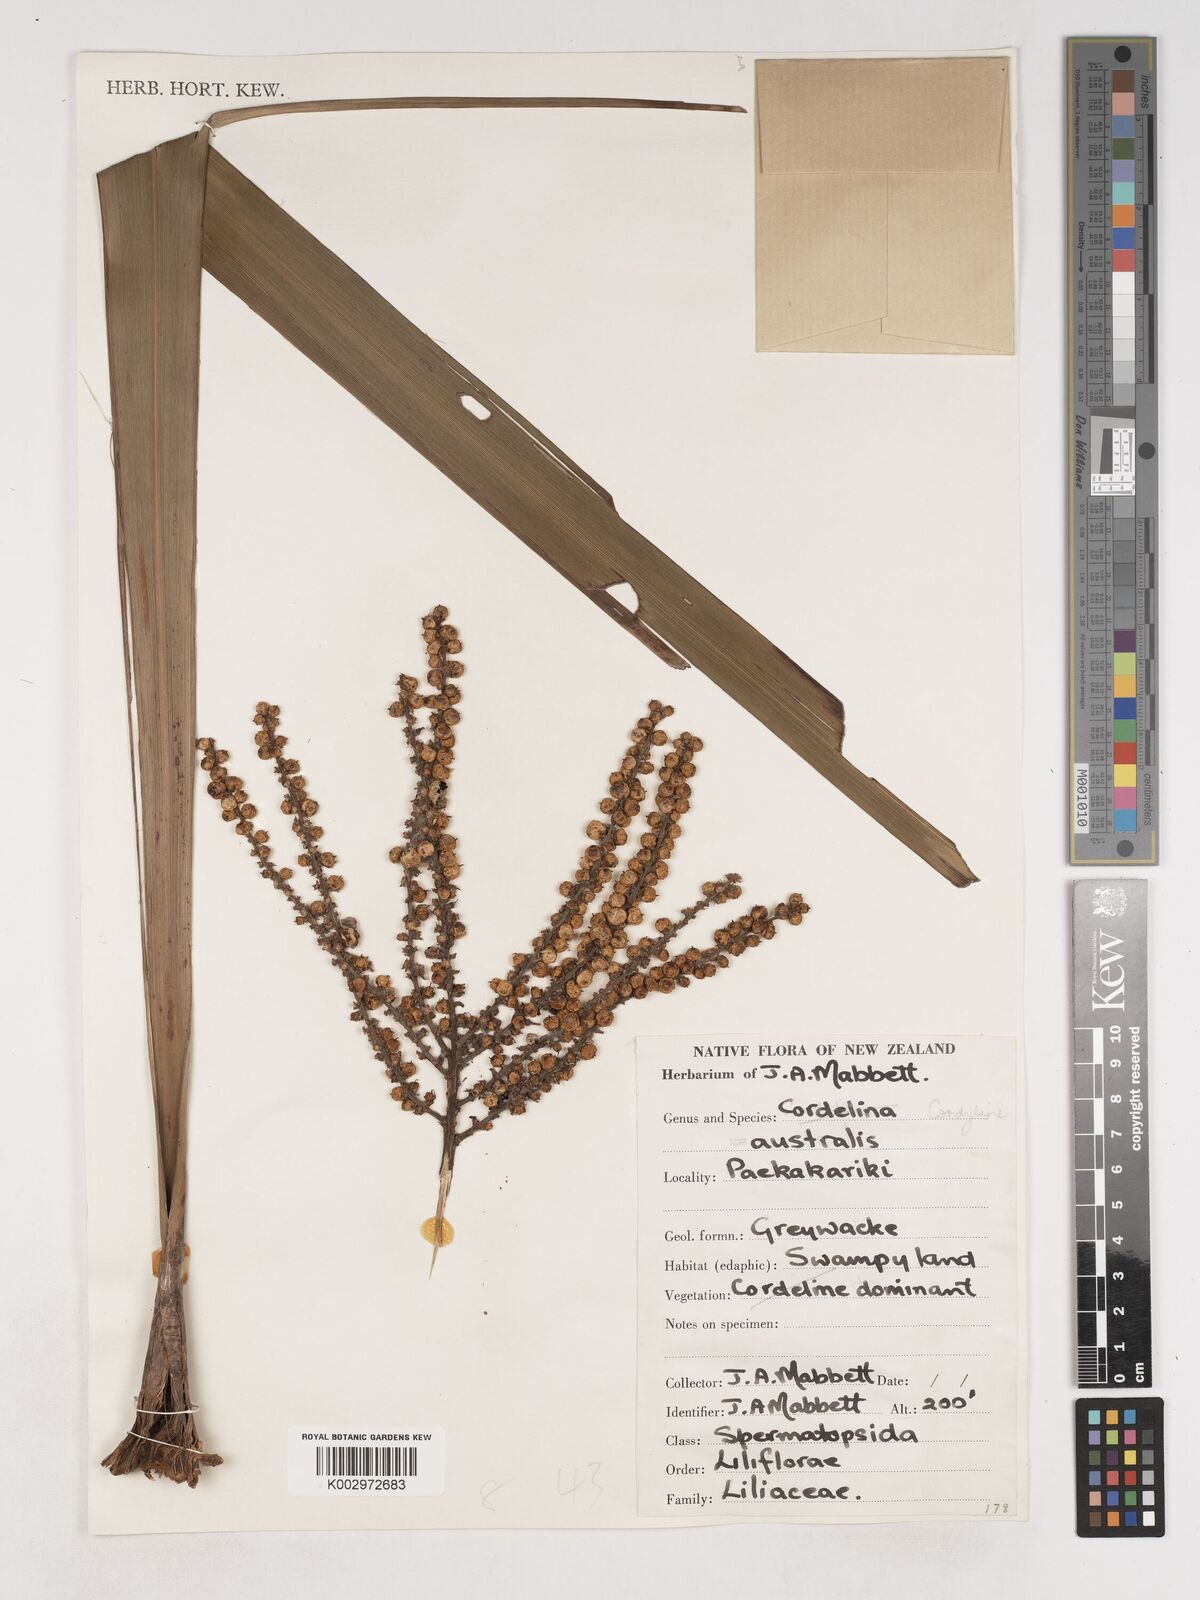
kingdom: Plantae
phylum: Tracheophyta
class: Liliopsida
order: Asparagales
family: Asparagaceae
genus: Cordyline
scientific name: Cordyline australis
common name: Cabbage-palm
